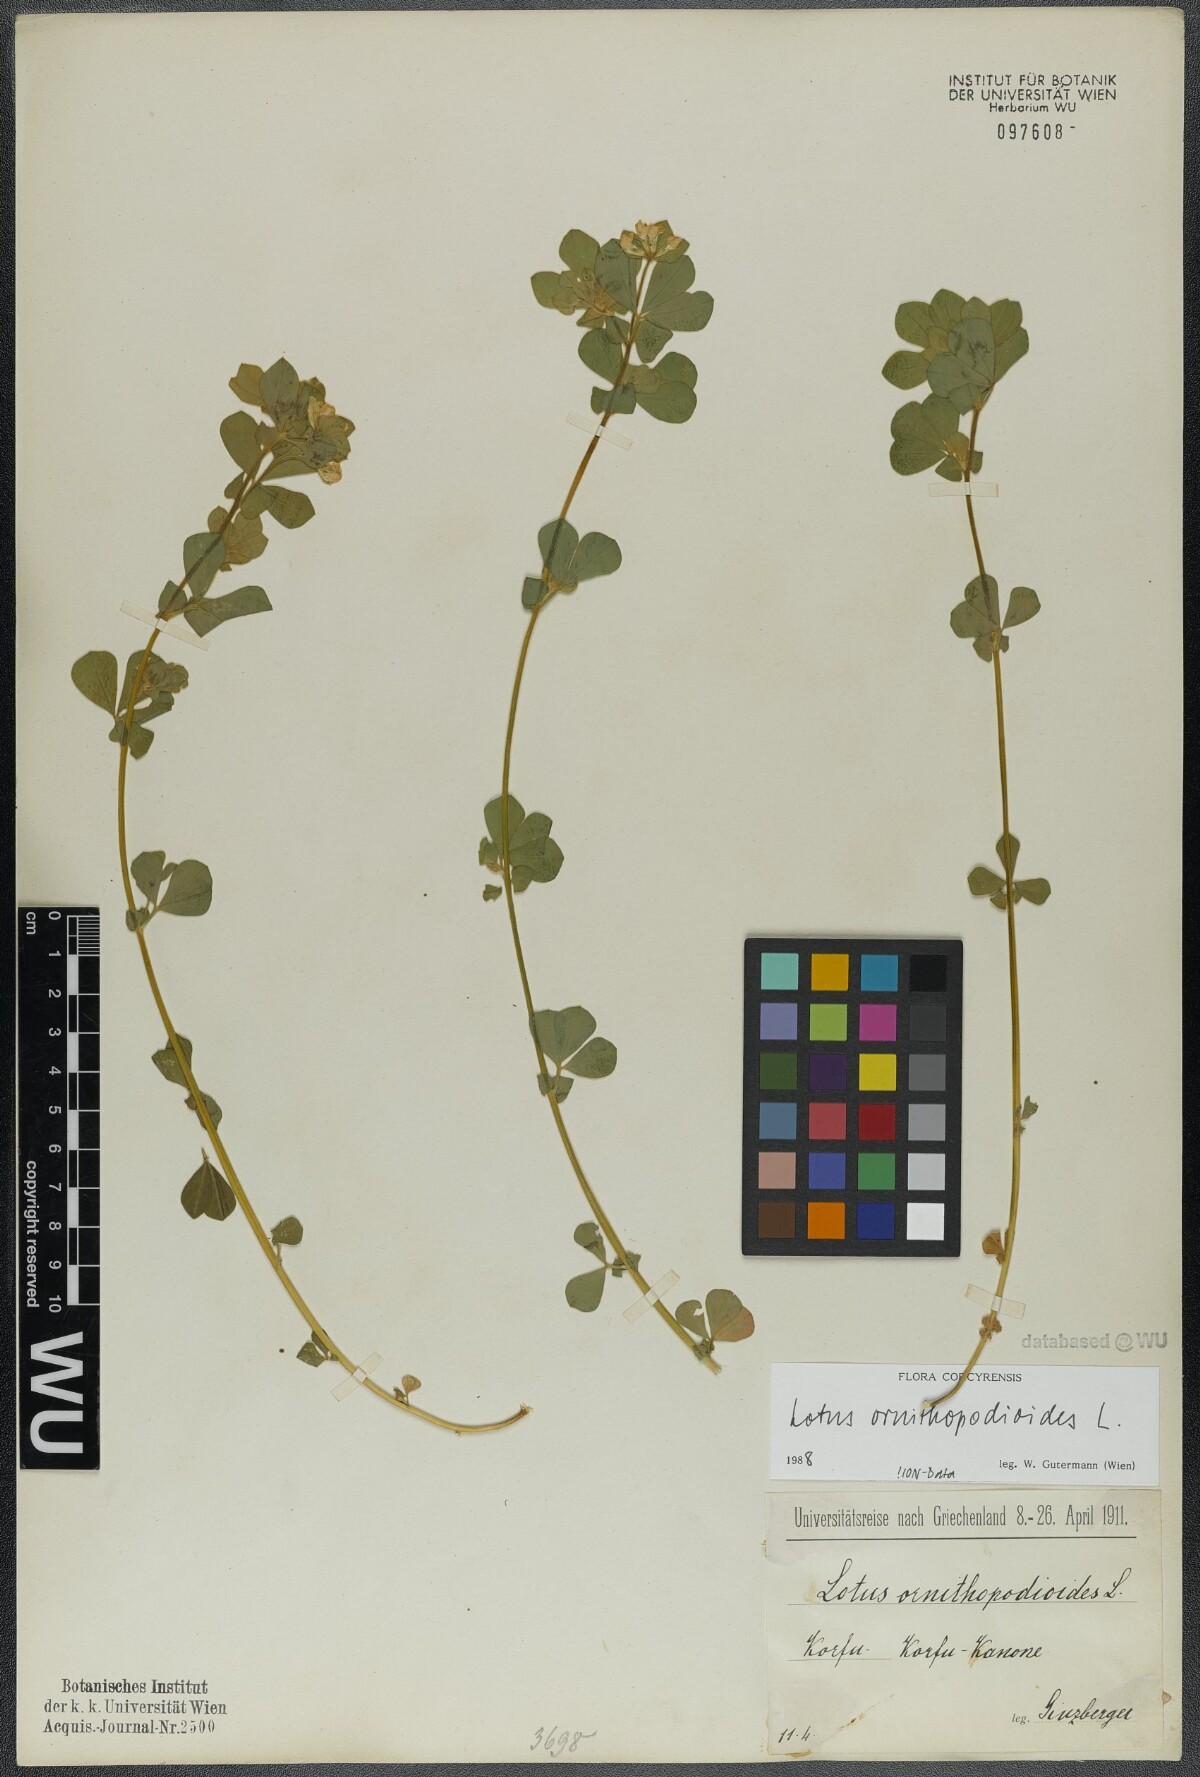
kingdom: Plantae
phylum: Tracheophyta
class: Magnoliopsida
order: Fabales
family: Fabaceae
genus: Lotus
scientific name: Lotus ornithopodioides
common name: Southern bird's-foot trefoil
